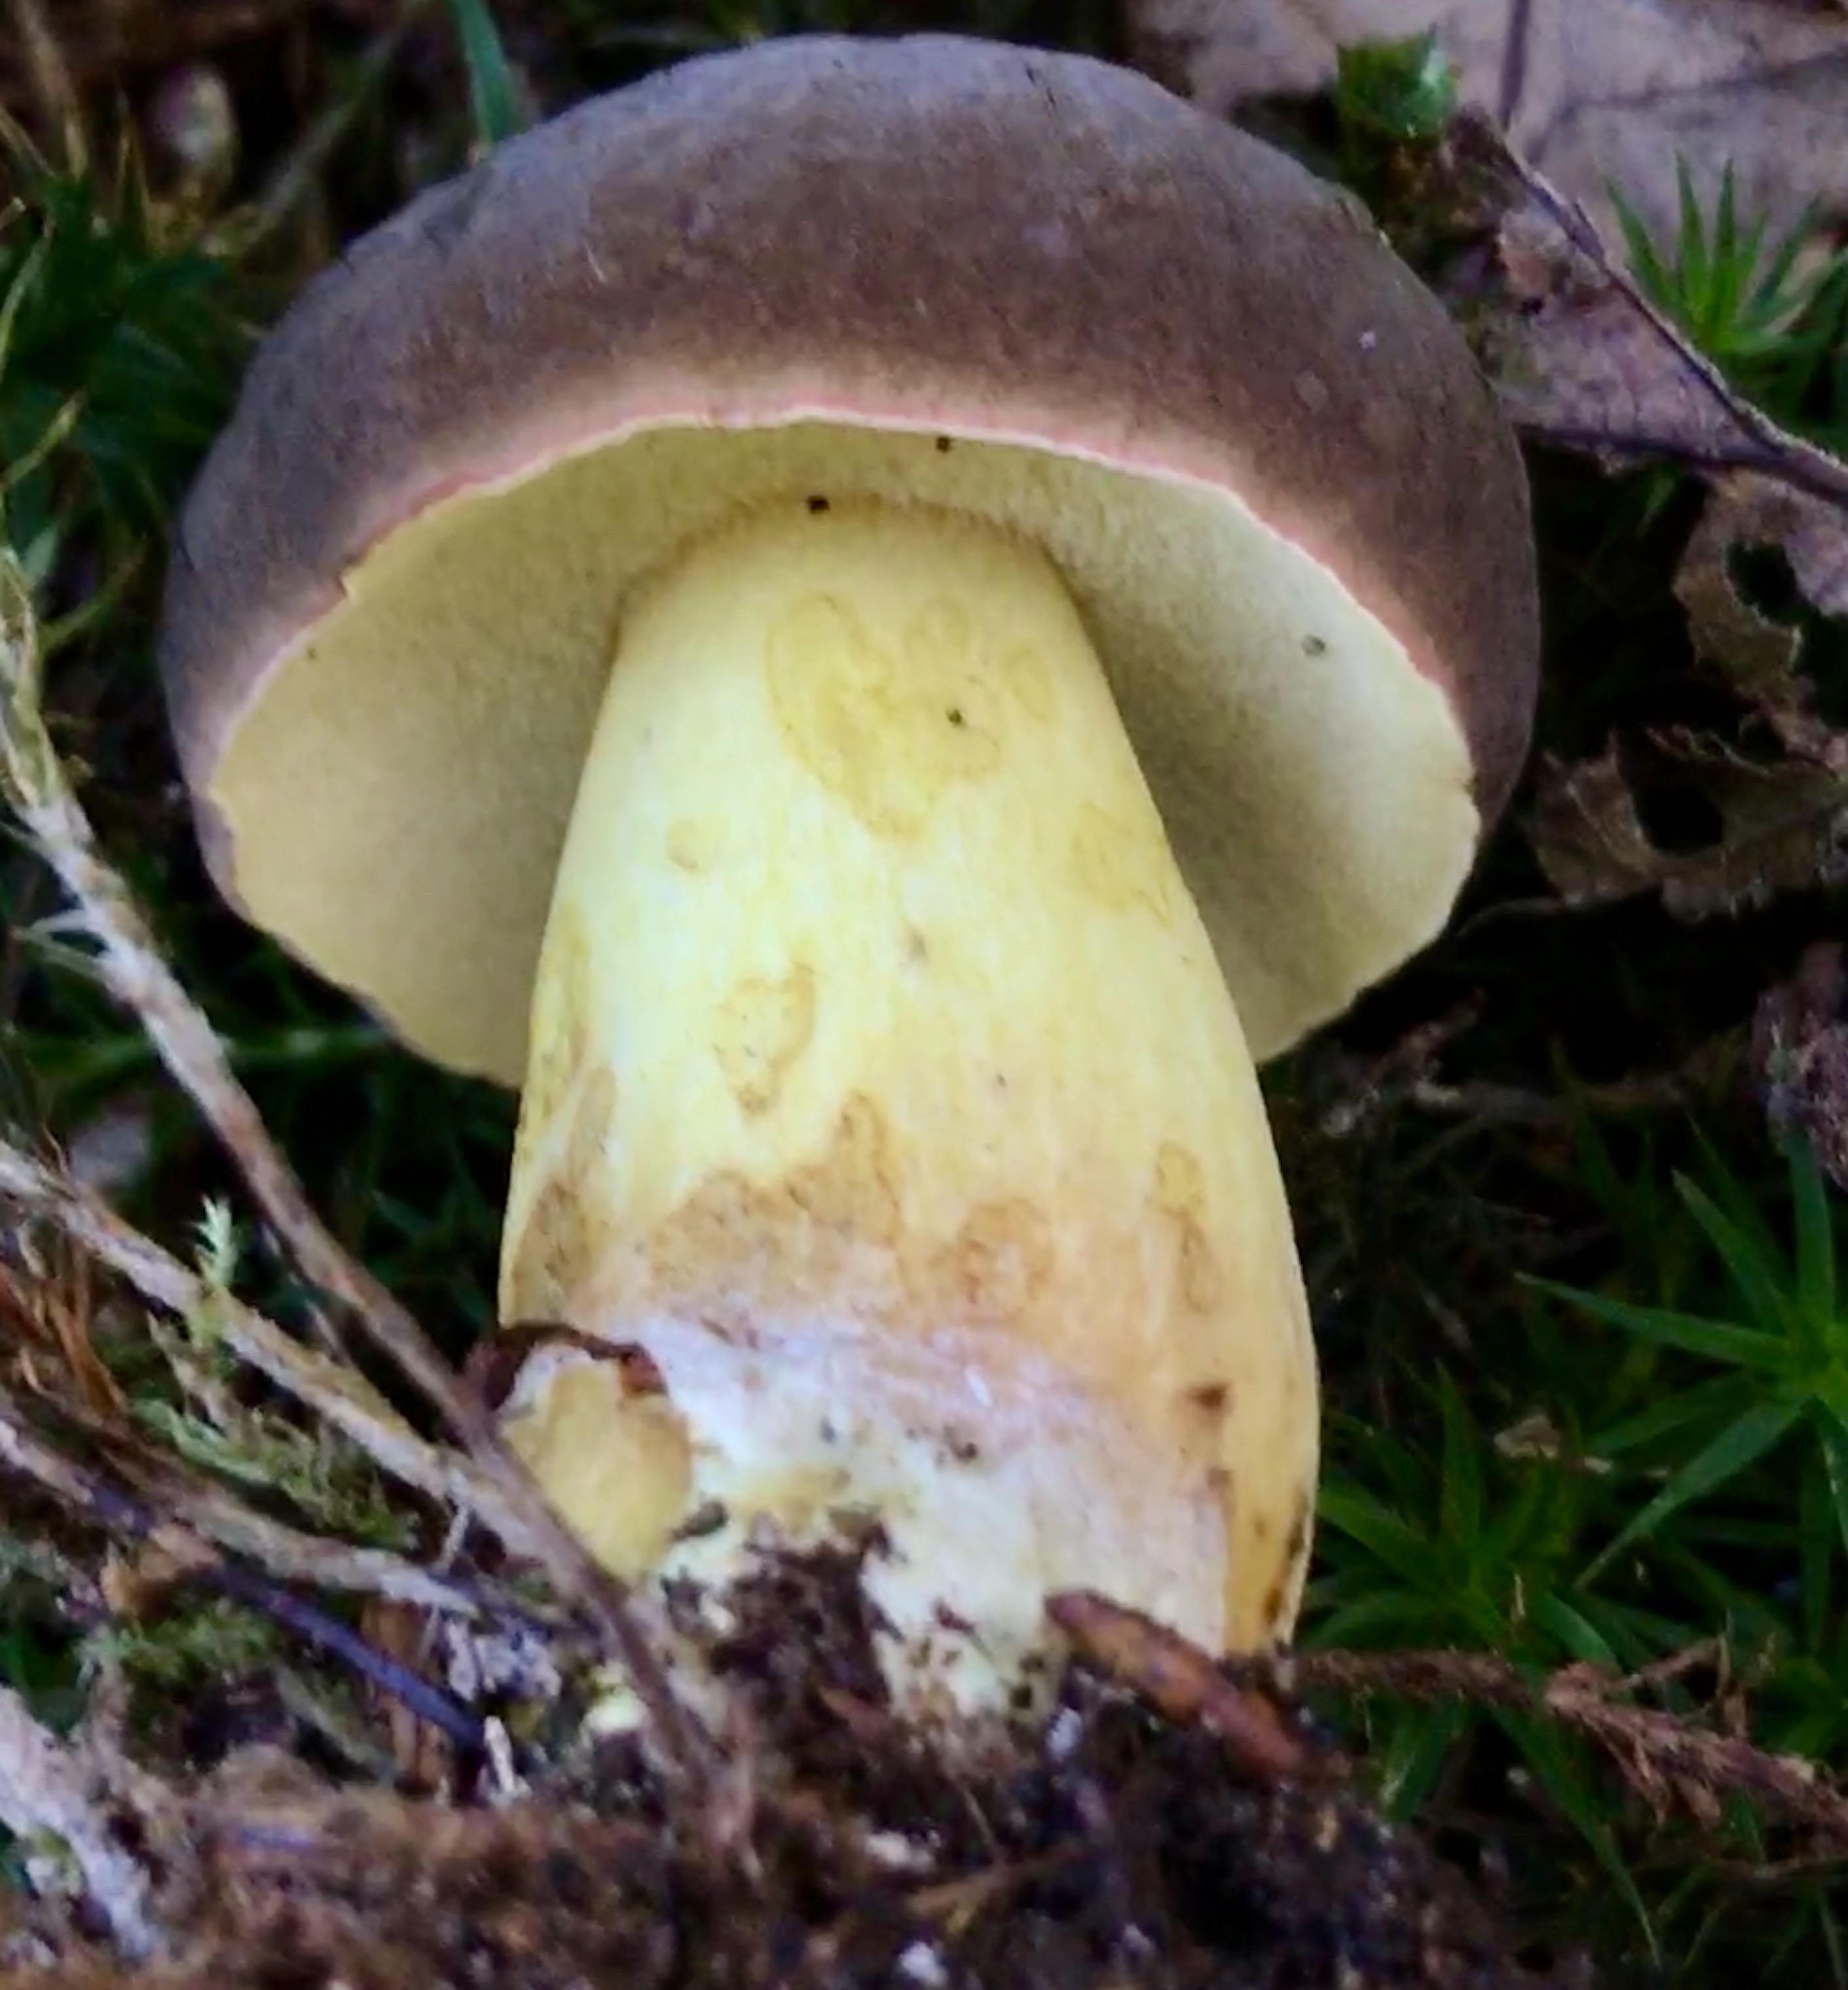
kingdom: Fungi
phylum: Basidiomycota
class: Agaricomycetes
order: Boletales
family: Boletaceae
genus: Xerocomellus
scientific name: Xerocomellus pruinatus
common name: dugget rørhat
